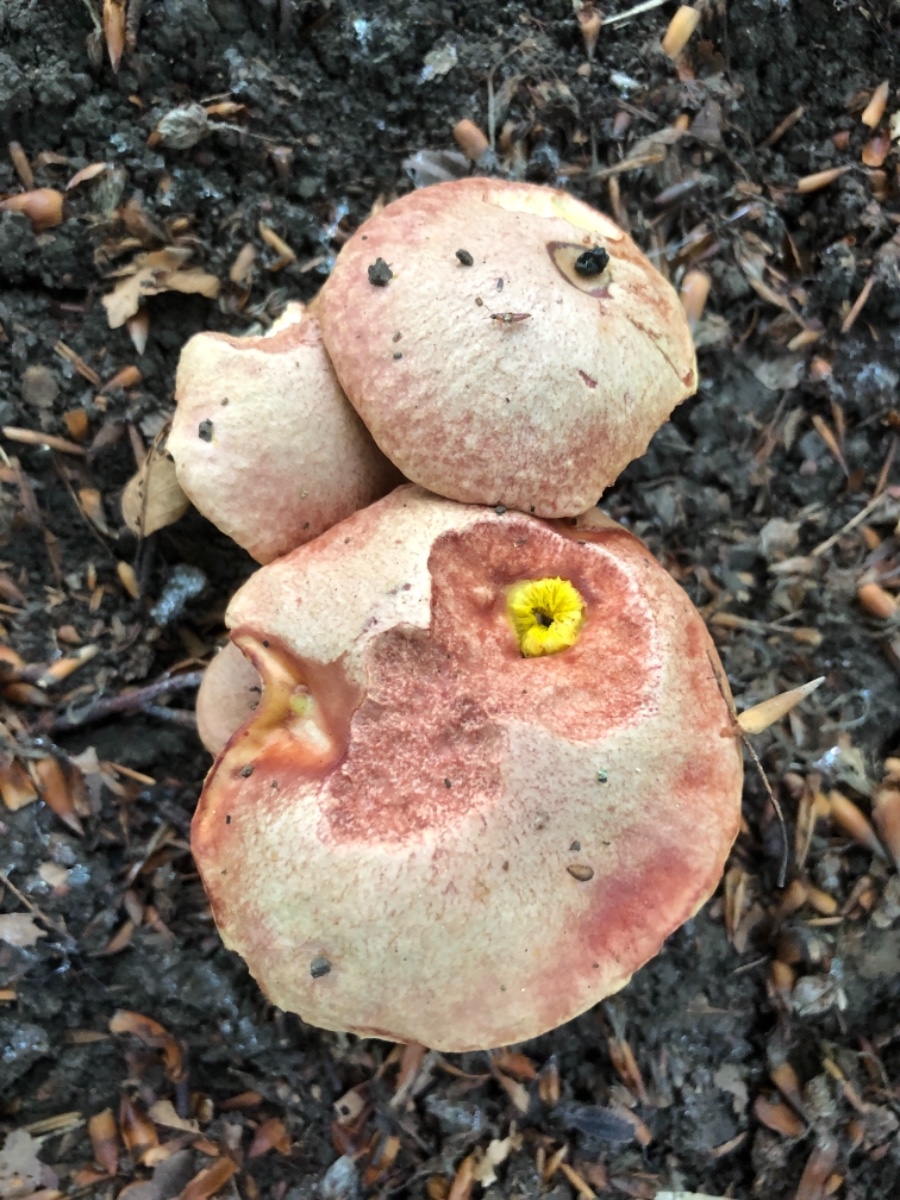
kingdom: Fungi
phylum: Basidiomycota
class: Agaricomycetes
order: Boletales
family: Boletaceae
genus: Aureoboletus
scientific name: Aureoboletus gentilis
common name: guldrørhat
